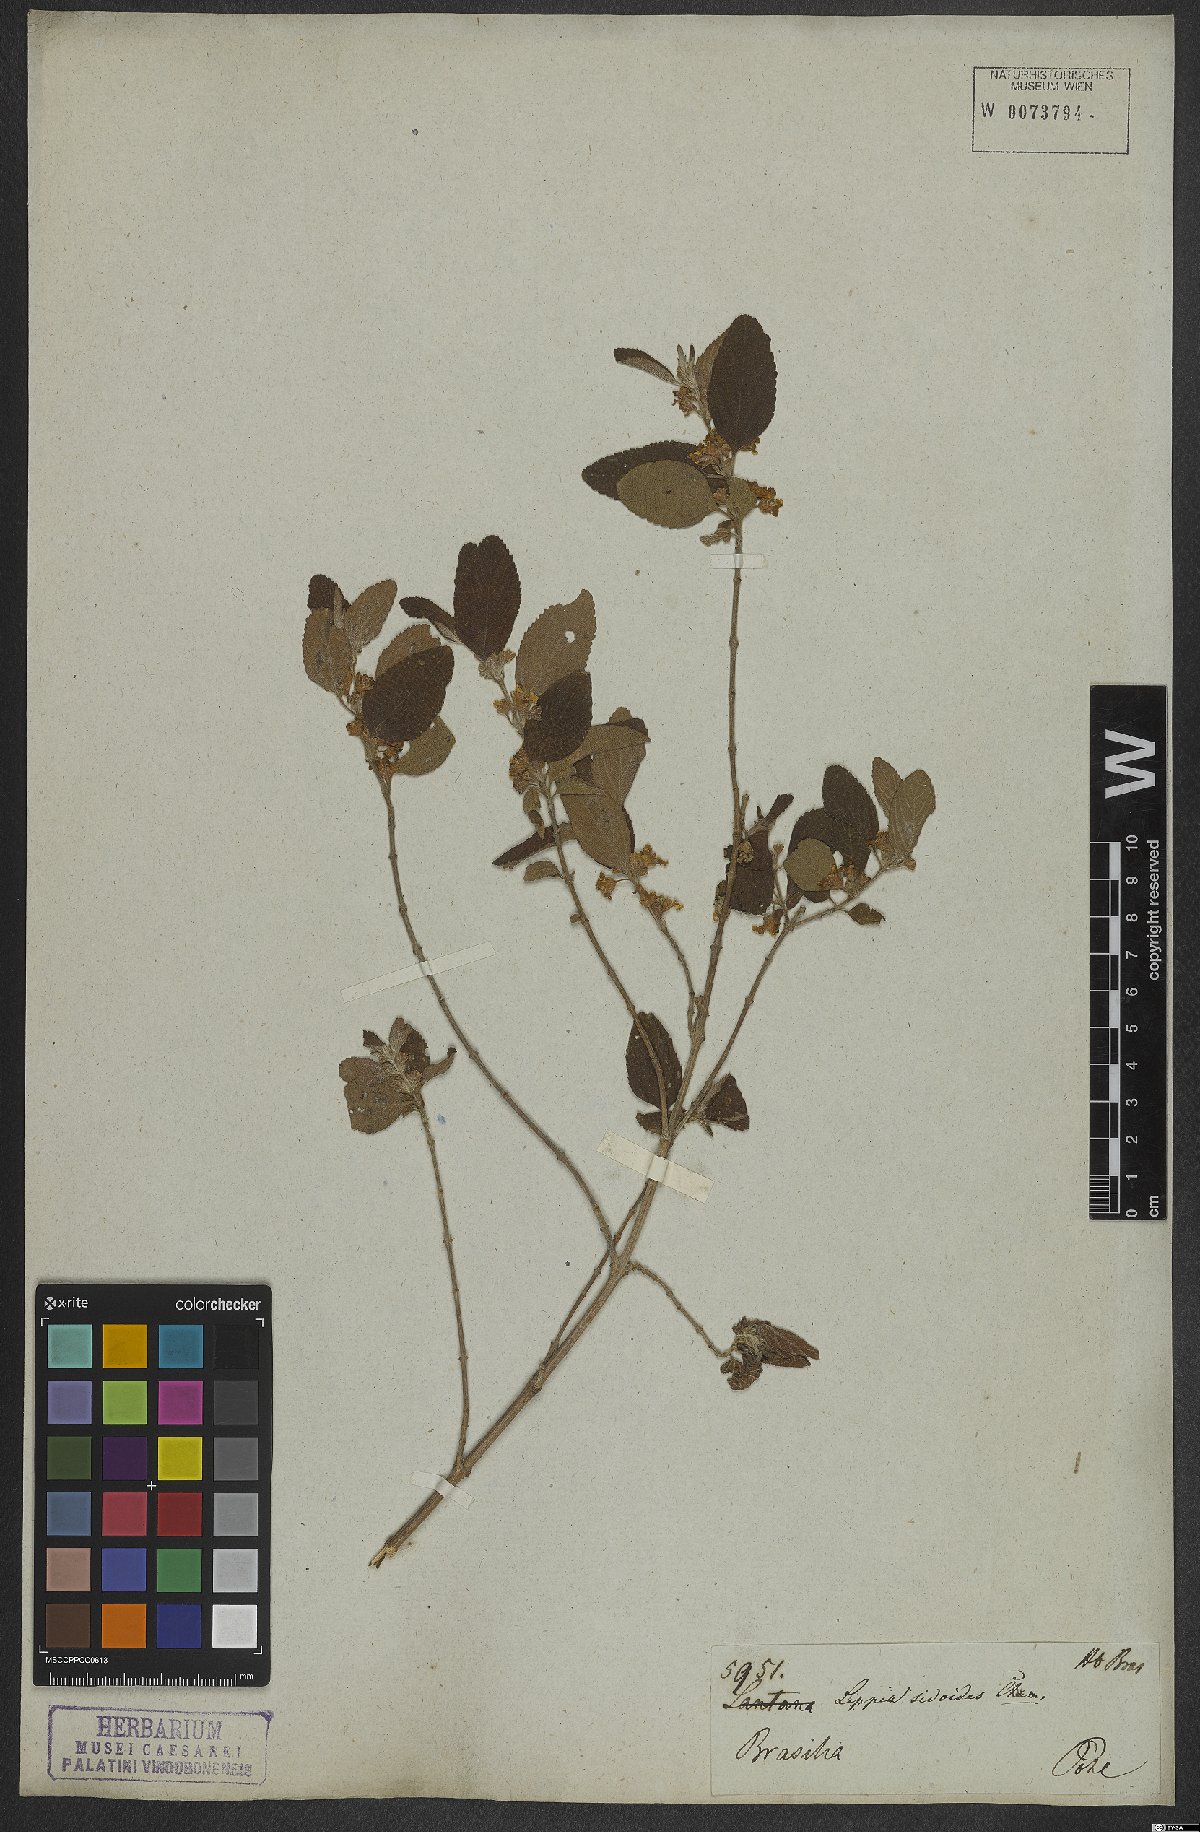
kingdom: Plantae
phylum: Tracheophyta
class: Magnoliopsida
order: Lamiales
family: Verbenaceae
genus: Lippia
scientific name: Lippia origanoides
